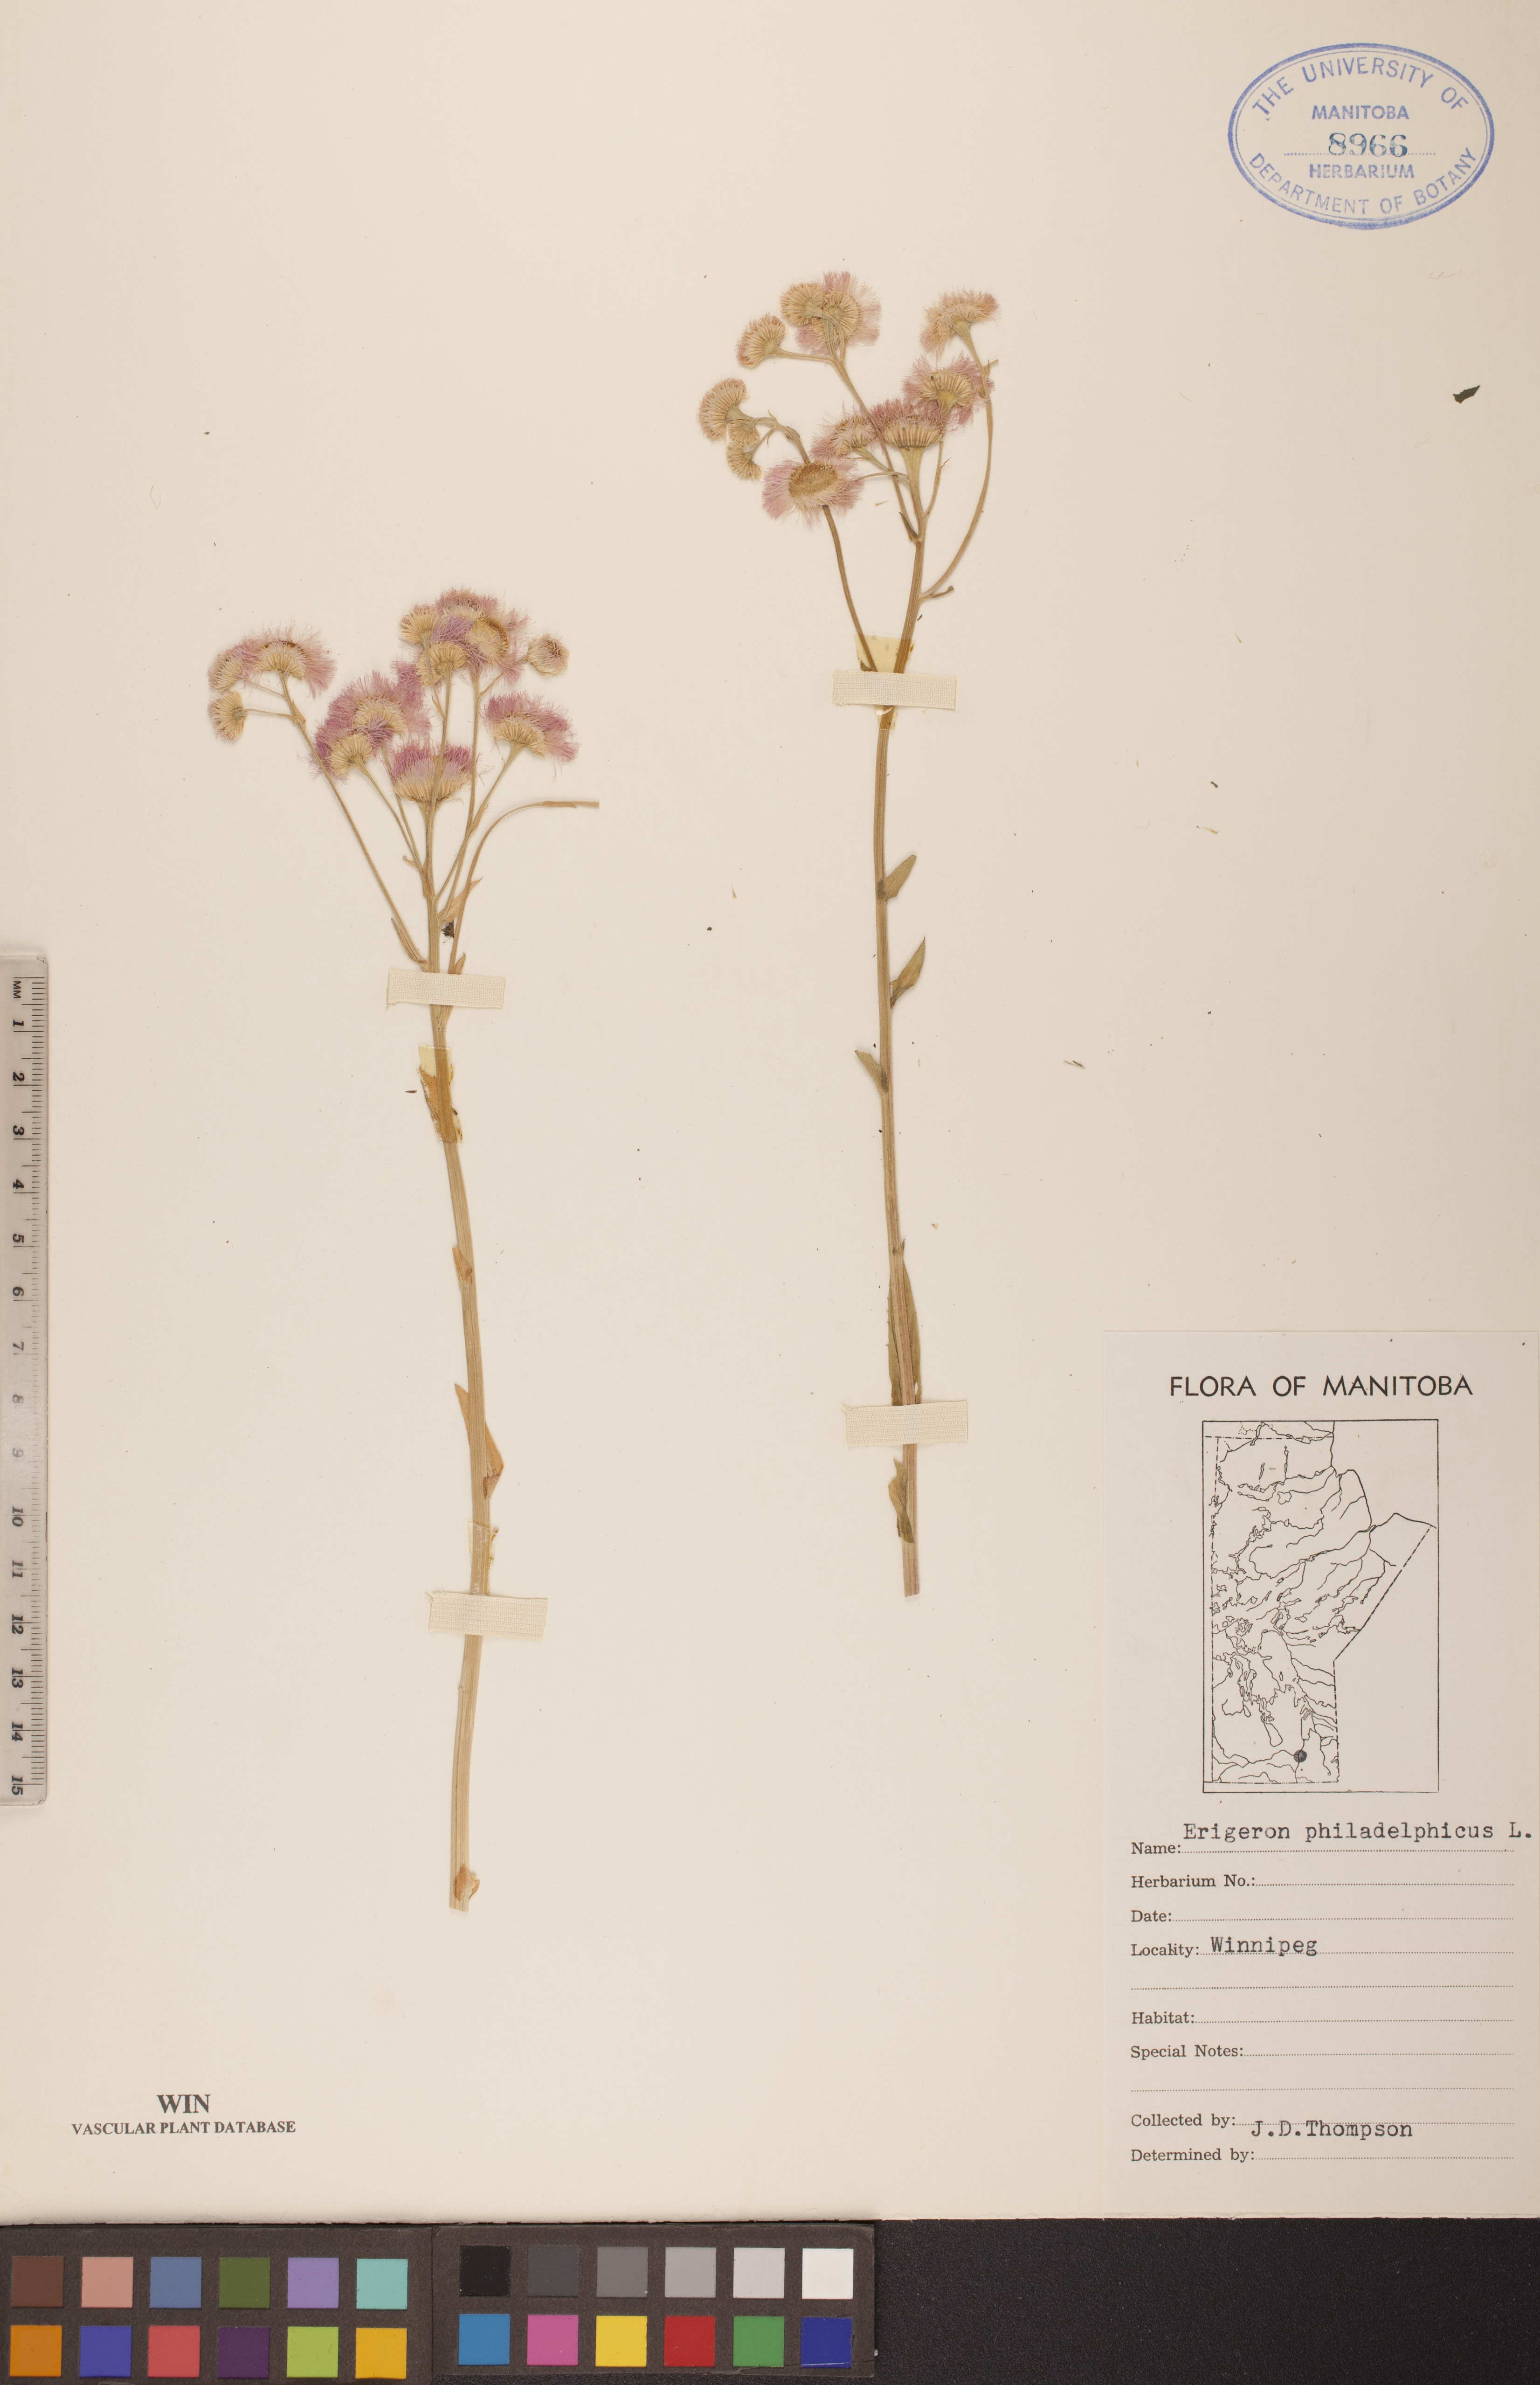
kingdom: Plantae
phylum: Tracheophyta
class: Magnoliopsida
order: Asterales
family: Asteraceae
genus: Erigeron
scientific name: Erigeron philadelphicus
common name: Robin's-plantain
